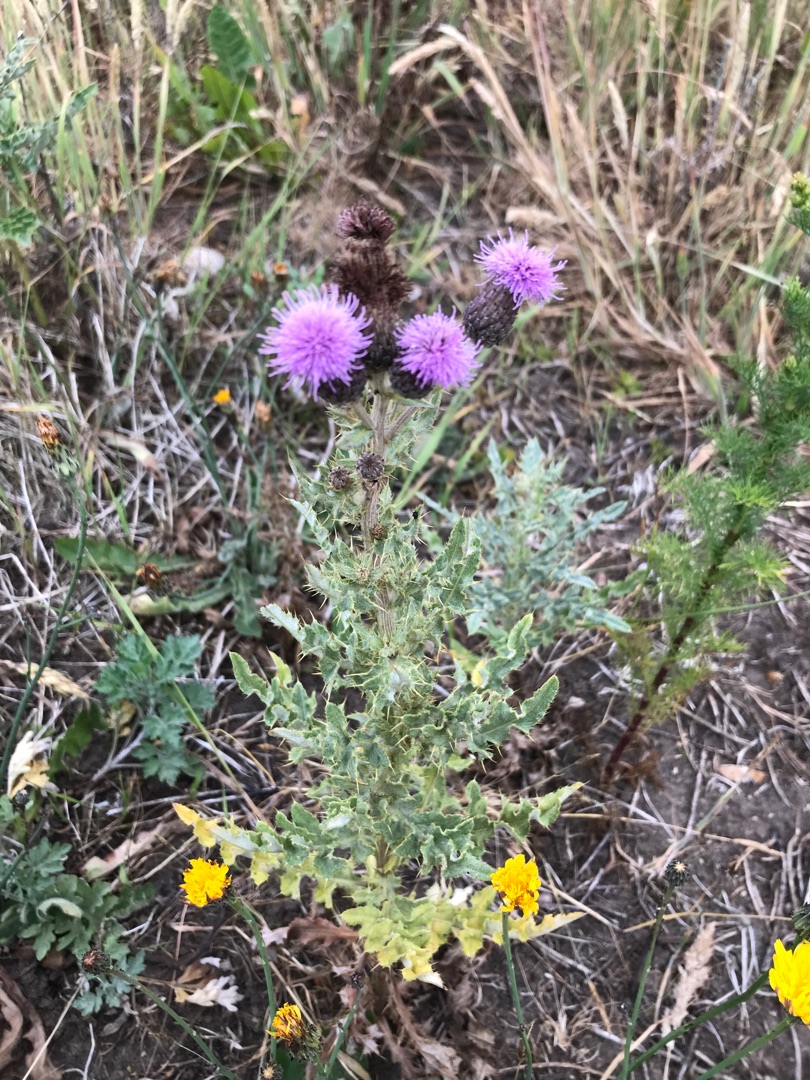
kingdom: Plantae
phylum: Tracheophyta
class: Magnoliopsida
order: Asterales
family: Asteraceae
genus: Cirsium
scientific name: Cirsium arvense
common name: Ager-tidsel
